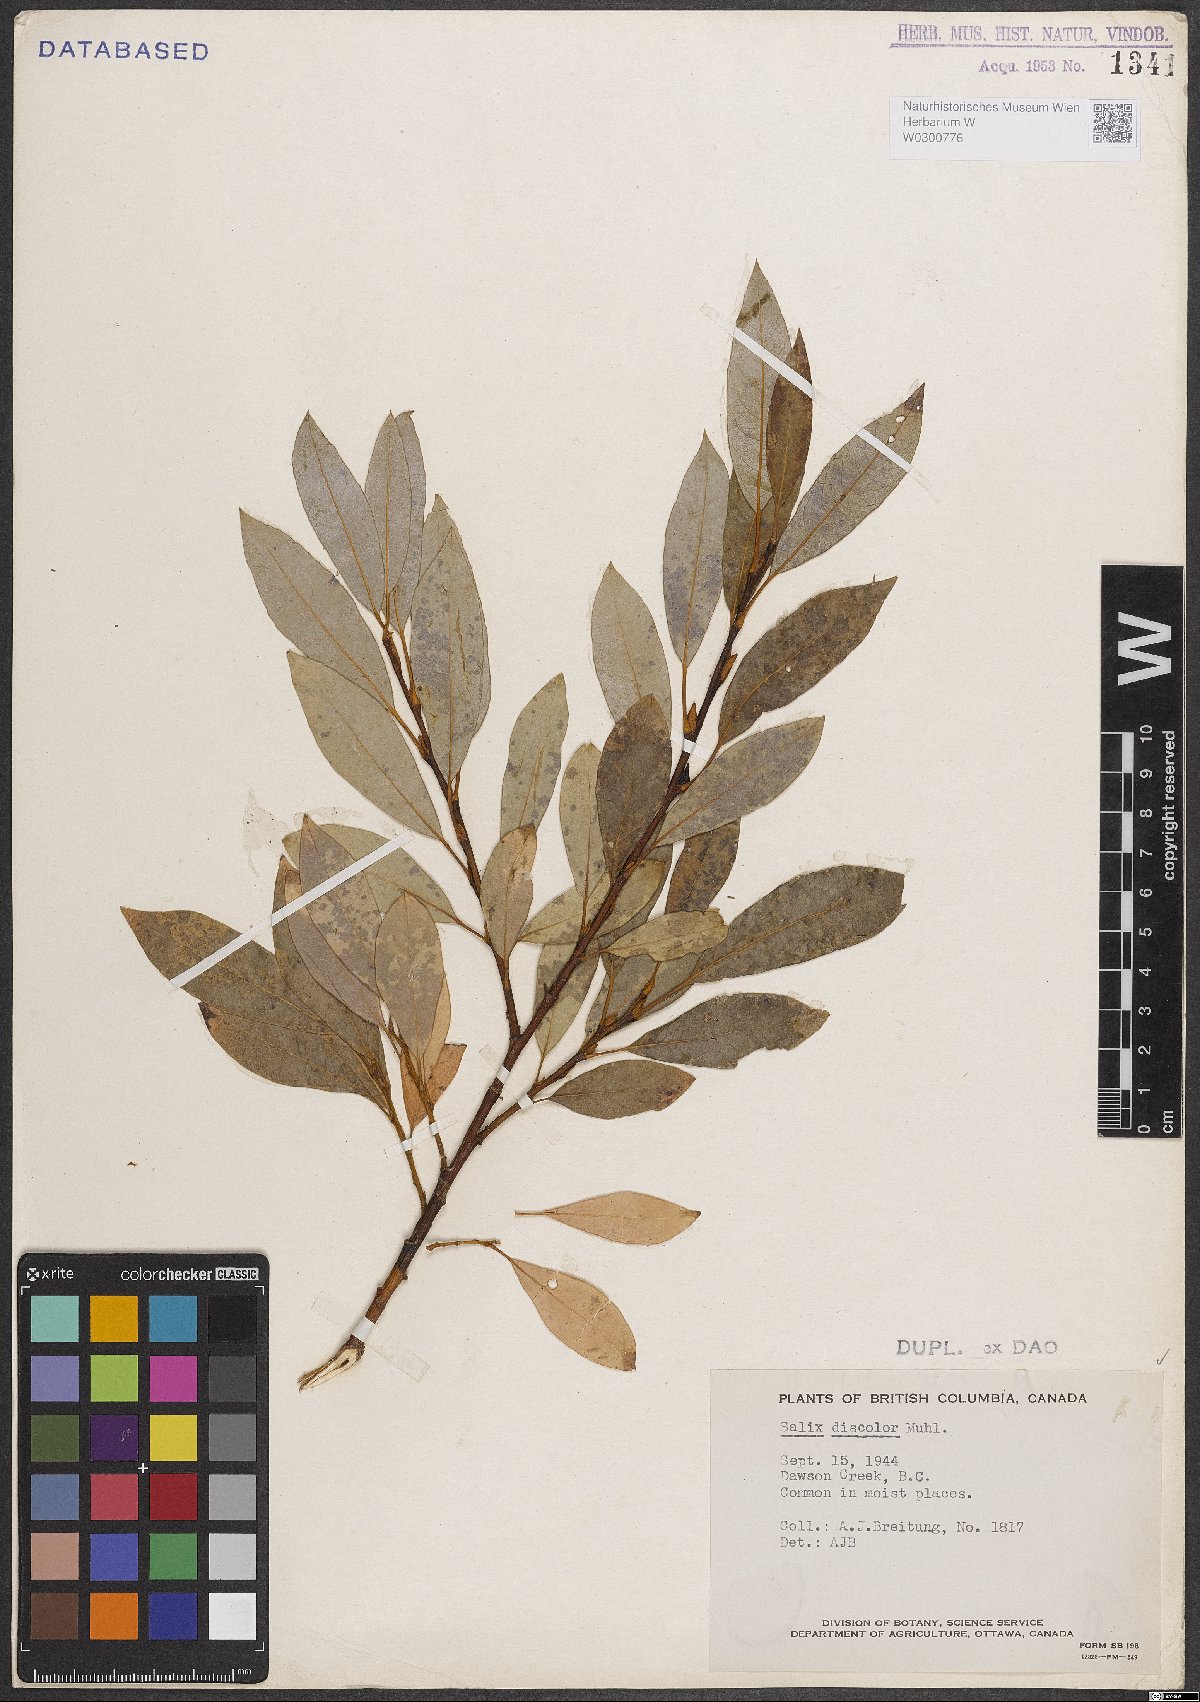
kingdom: Plantae
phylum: Tracheophyta
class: Magnoliopsida
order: Malpighiales
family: Salicaceae
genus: Salix
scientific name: Salix discolor
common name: Glaucous willow
